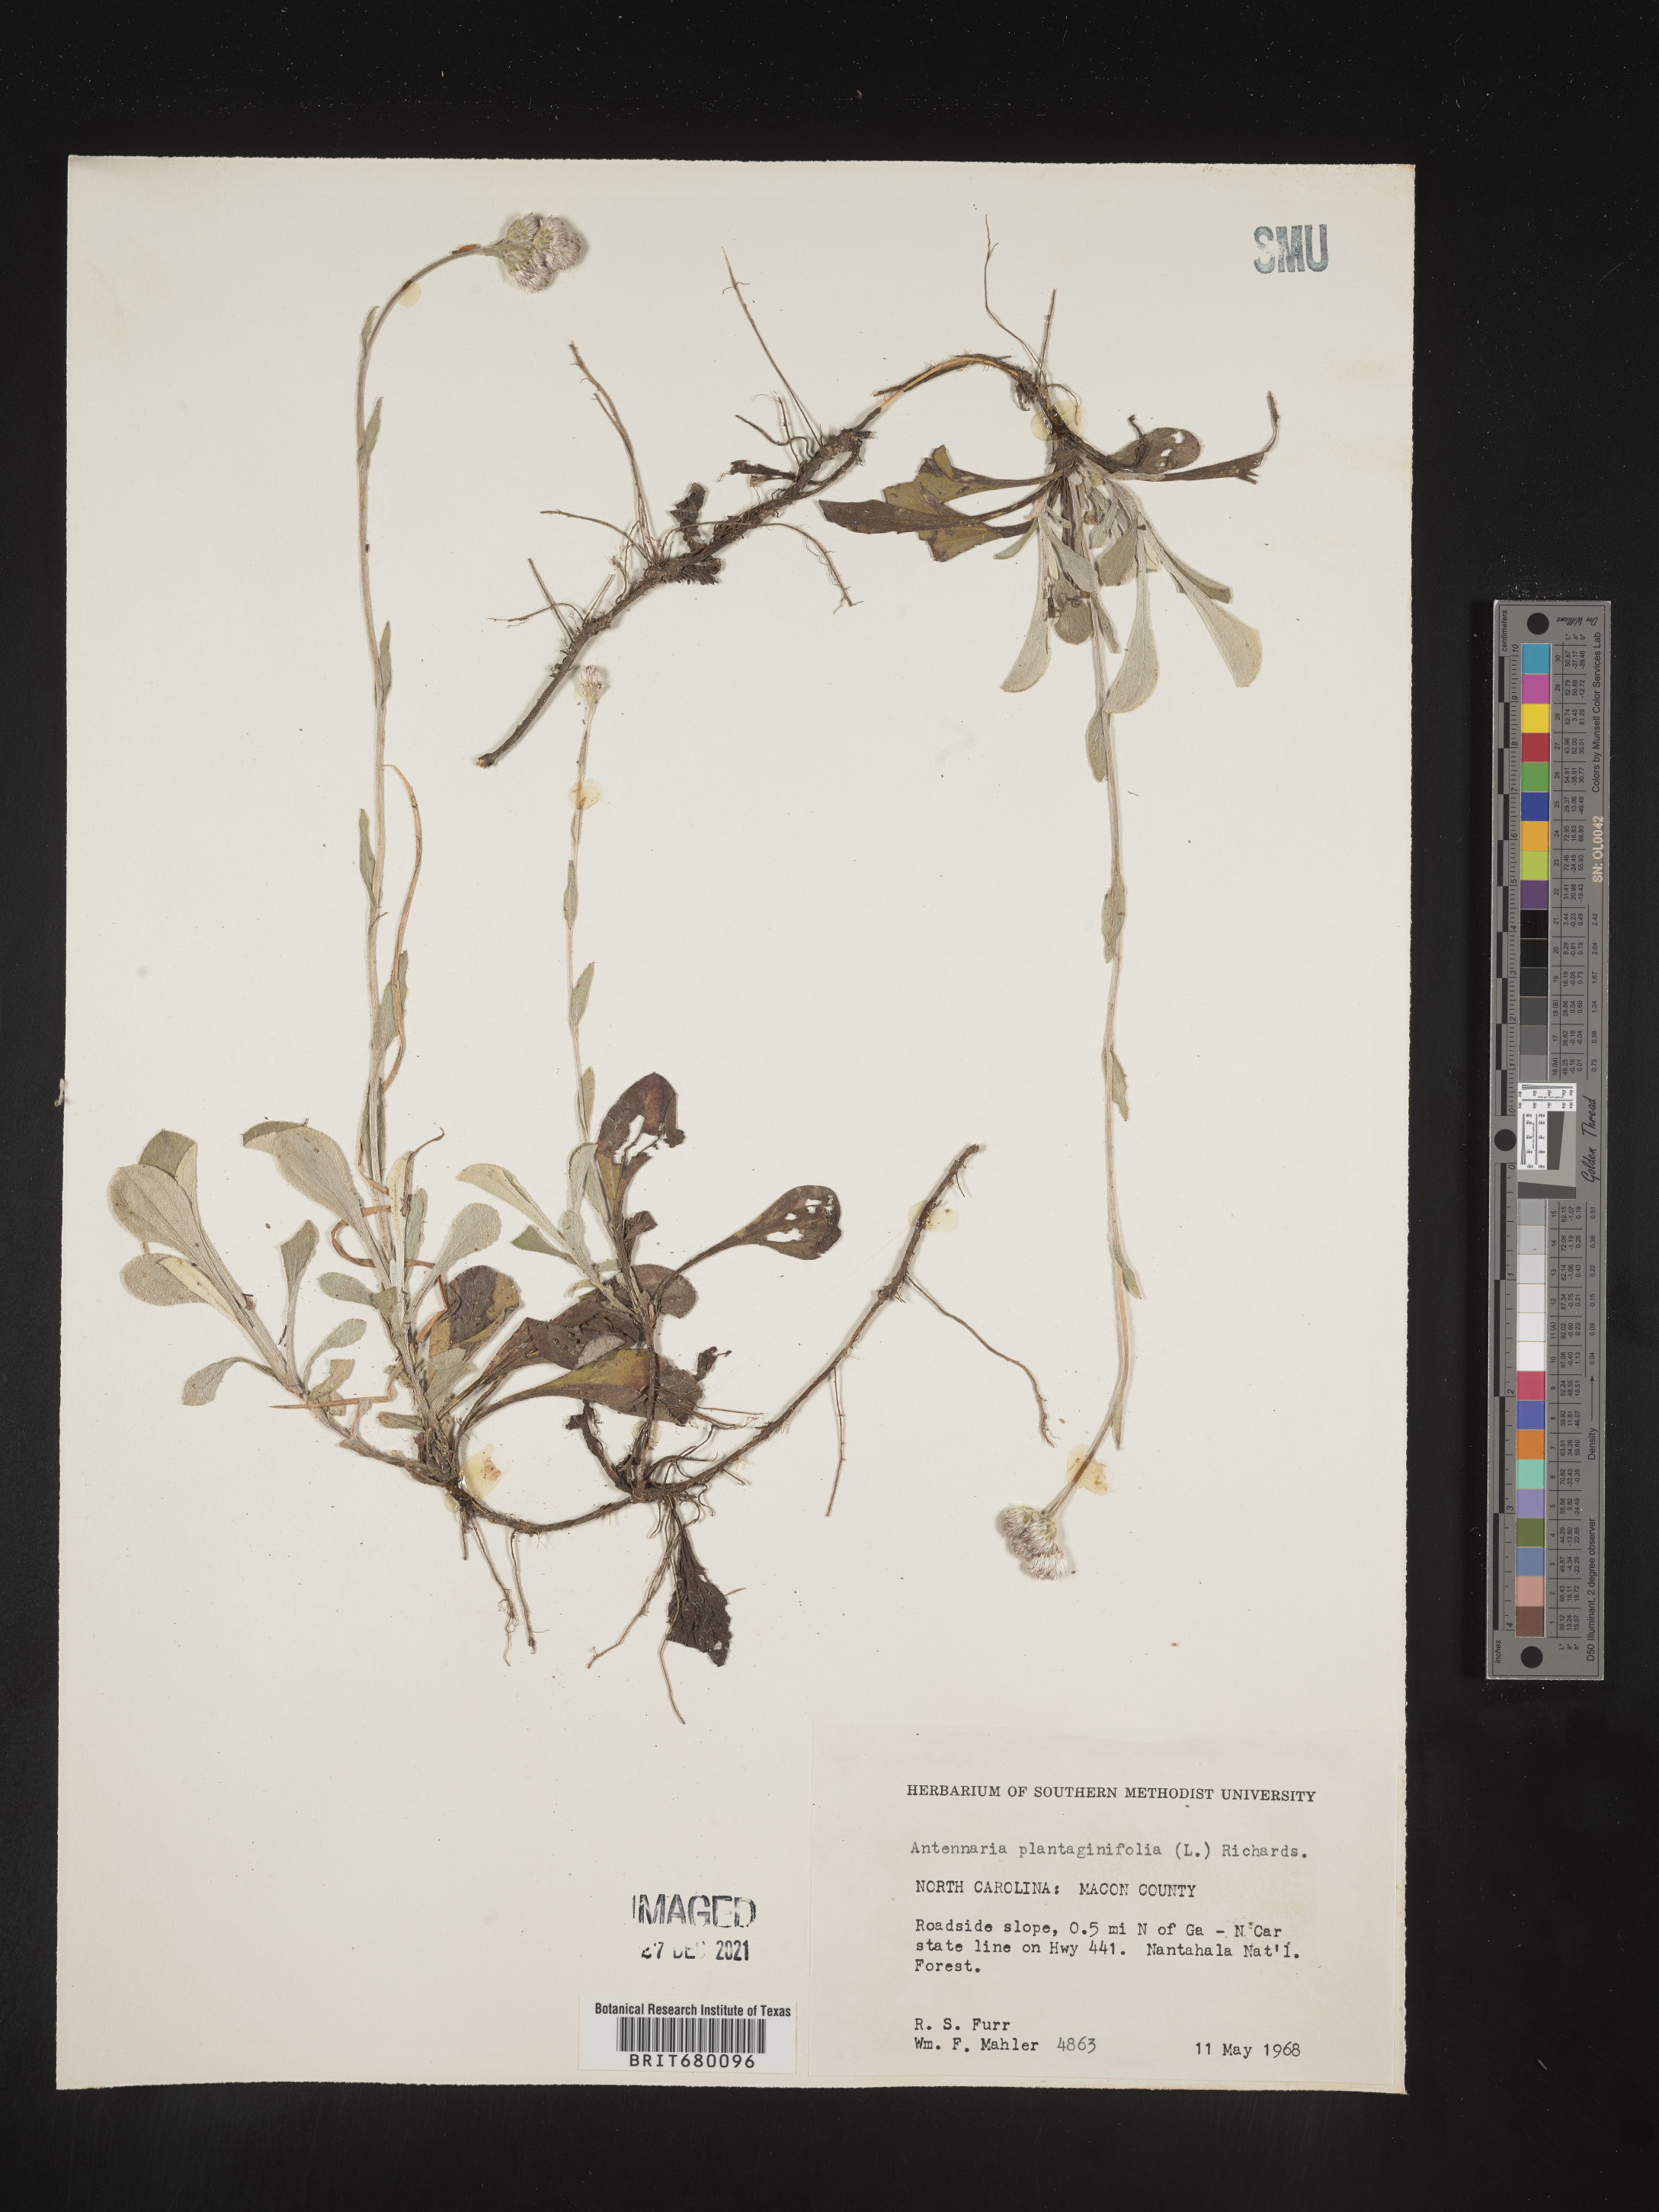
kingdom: Plantae
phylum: Tracheophyta
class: Magnoliopsida
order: Asterales
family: Asteraceae
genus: Antennaria
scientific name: Antennaria plantaginifolia
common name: Plantain-leaved pussytoes
